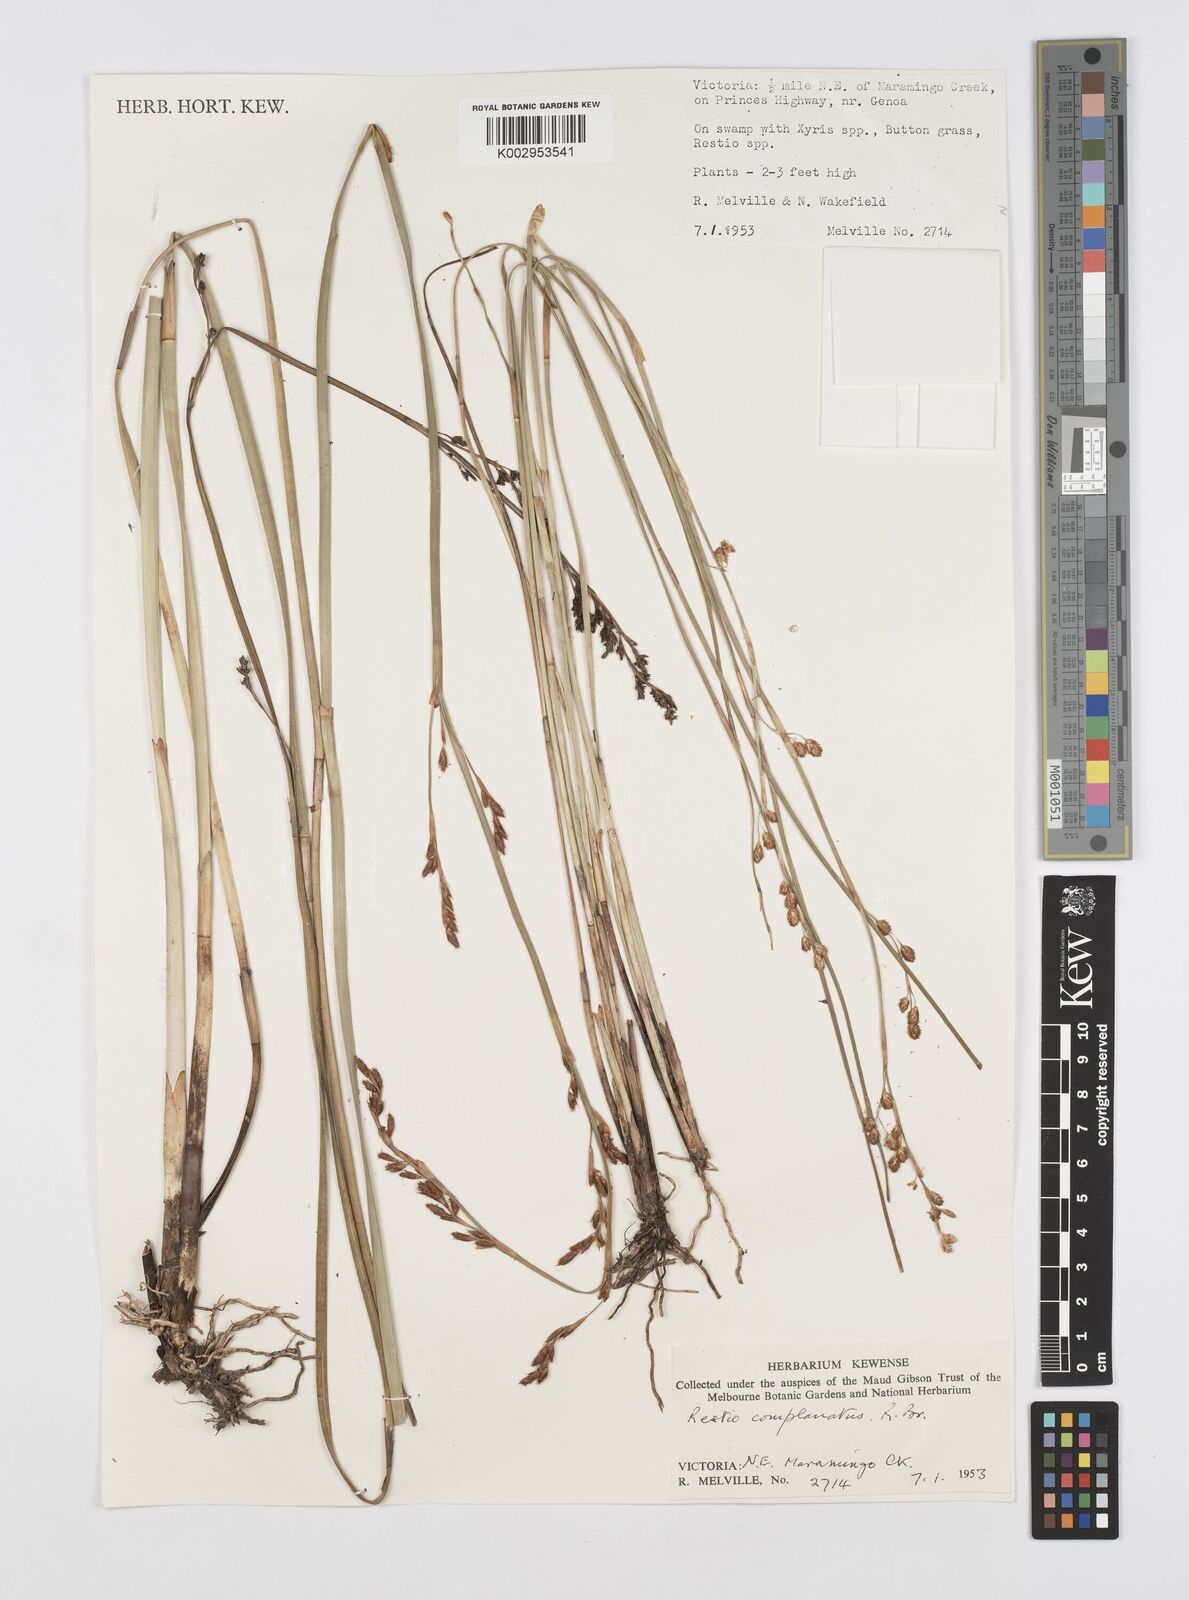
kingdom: Plantae
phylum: Tracheophyta
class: Liliopsida
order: Poales
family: Restionaceae
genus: Eurychorda
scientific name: Eurychorda complanata
